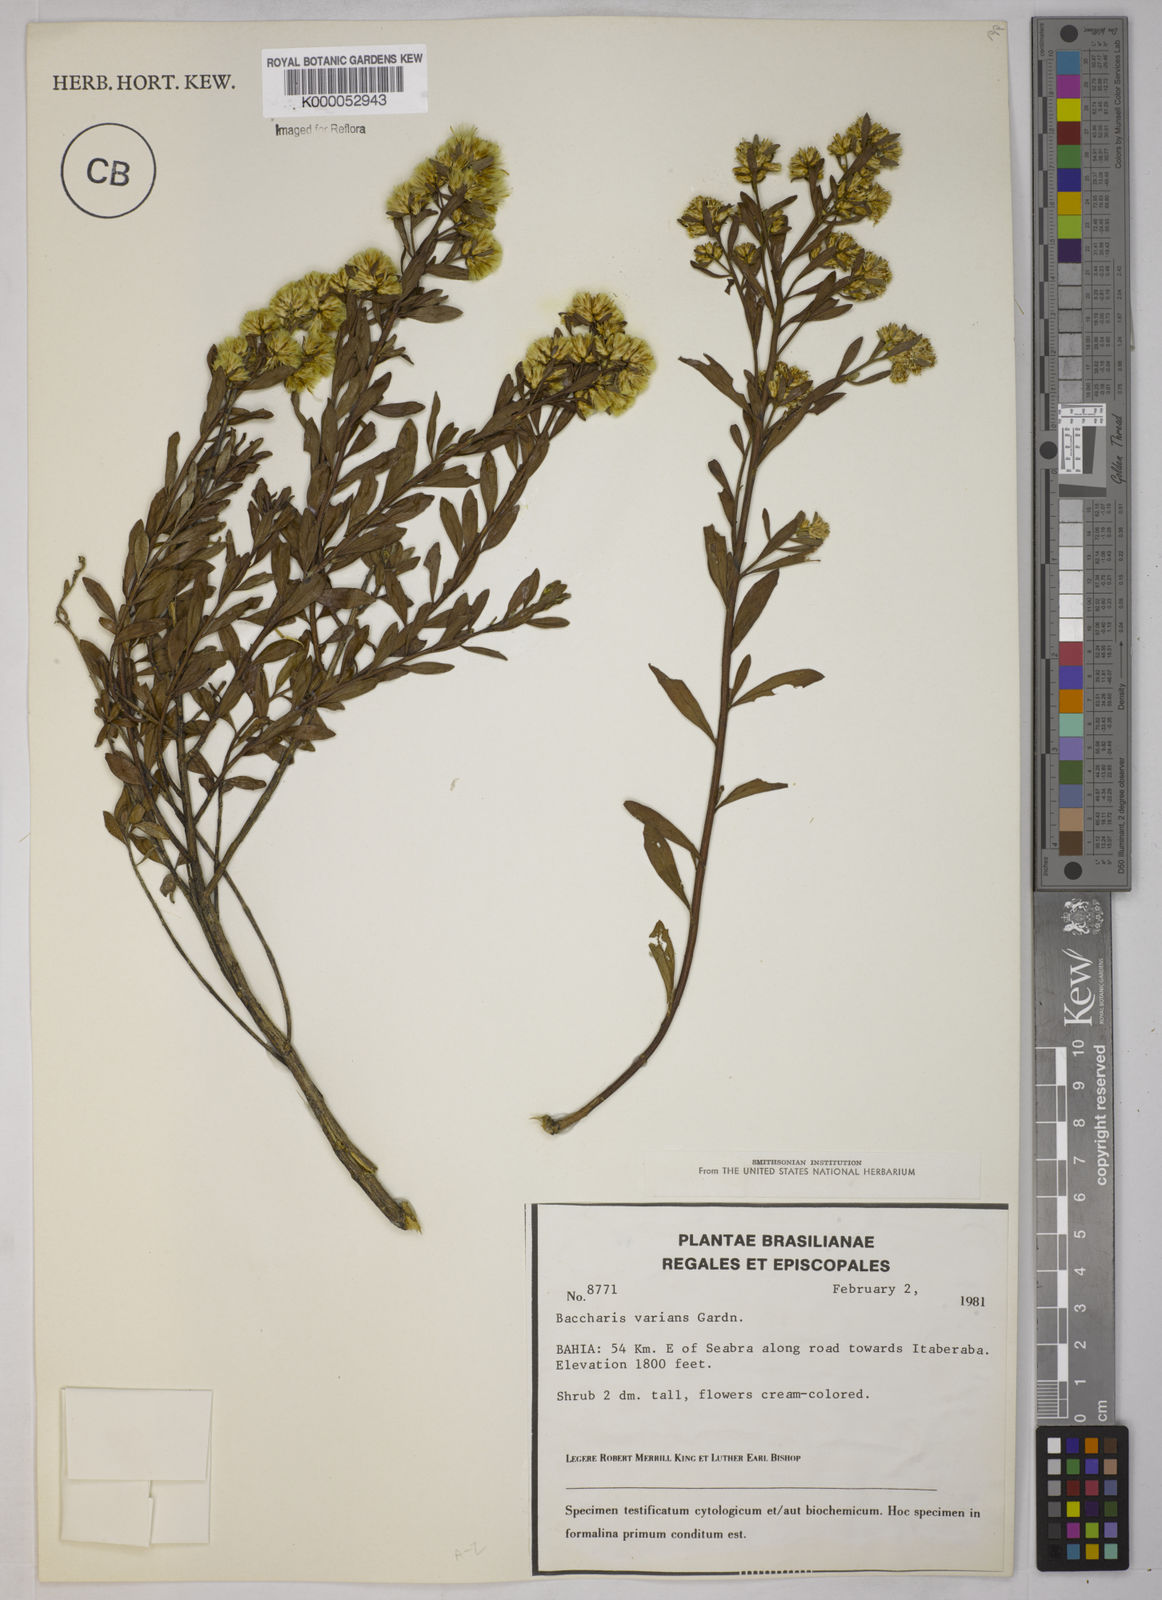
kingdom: Plantae
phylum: Tracheophyta
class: Magnoliopsida
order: Asterales
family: Asteraceae
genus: Baccharis
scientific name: Baccharis varians
